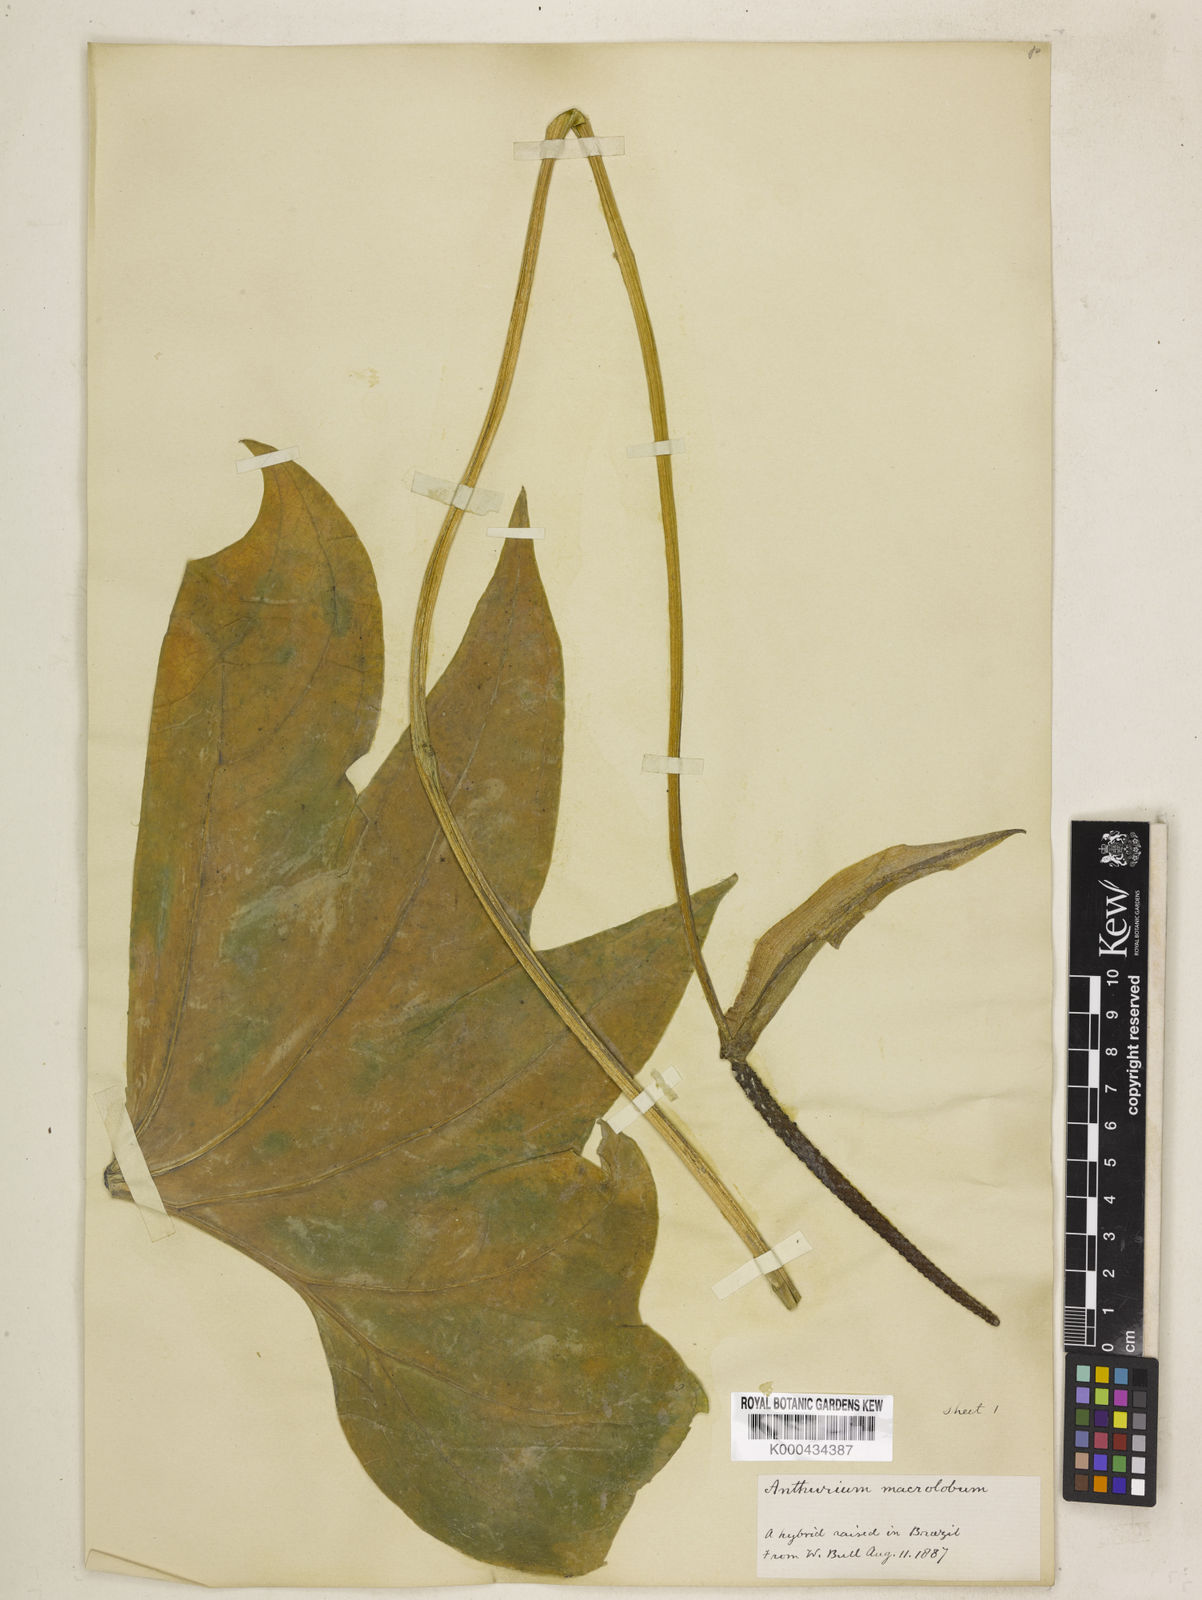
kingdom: Plantae
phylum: Tracheophyta
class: Liliopsida
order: Alismatales
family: Araceae
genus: Anthurium
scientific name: Anthurium leuconeurum
